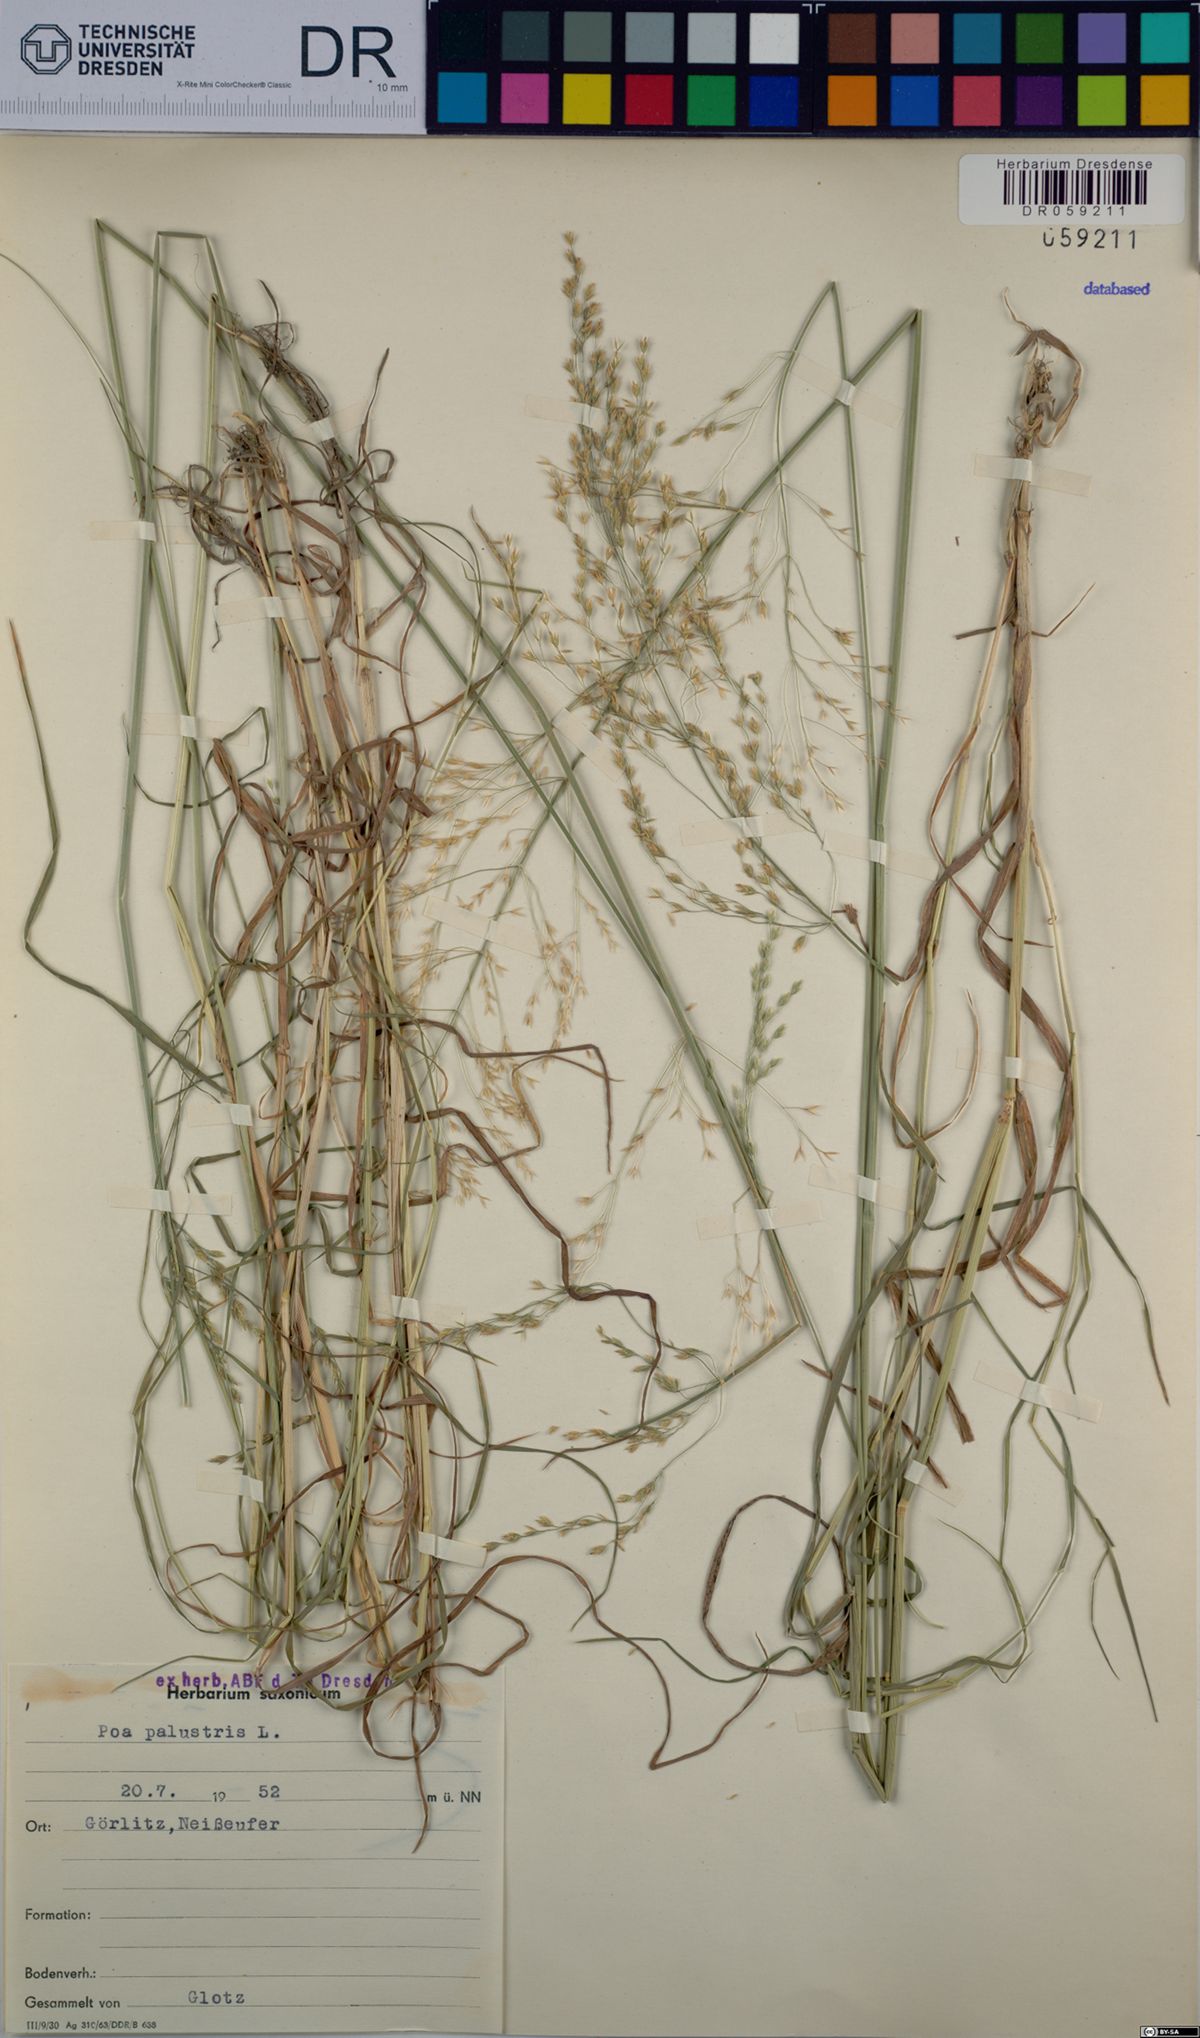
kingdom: Plantae
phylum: Tracheophyta
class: Liliopsida
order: Poales
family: Poaceae
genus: Poa
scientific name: Poa palustris
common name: Swamp meadow-grass
